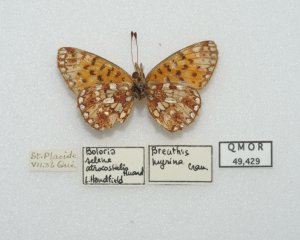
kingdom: Animalia
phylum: Arthropoda
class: Insecta
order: Lepidoptera
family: Nymphalidae
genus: Boloria
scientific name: Boloria selene
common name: Silver-bordered Fritillary
